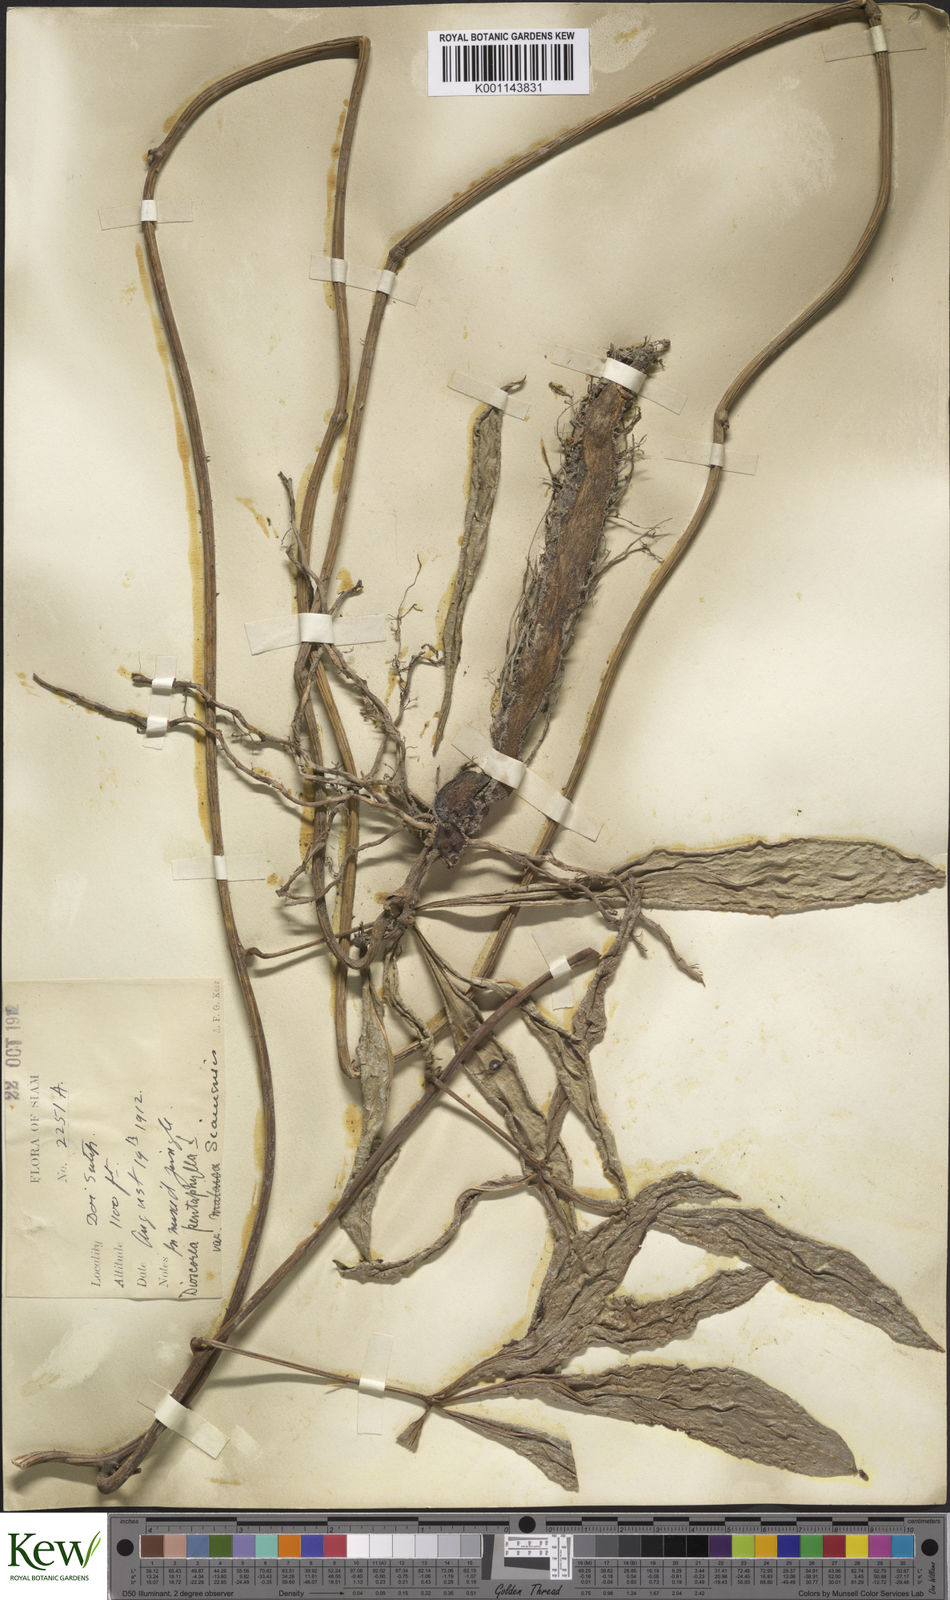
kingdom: Plantae
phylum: Tracheophyta
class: Liliopsida
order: Dioscoreales
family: Dioscoreaceae
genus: Dioscorea
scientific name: Dioscorea pentaphylla
